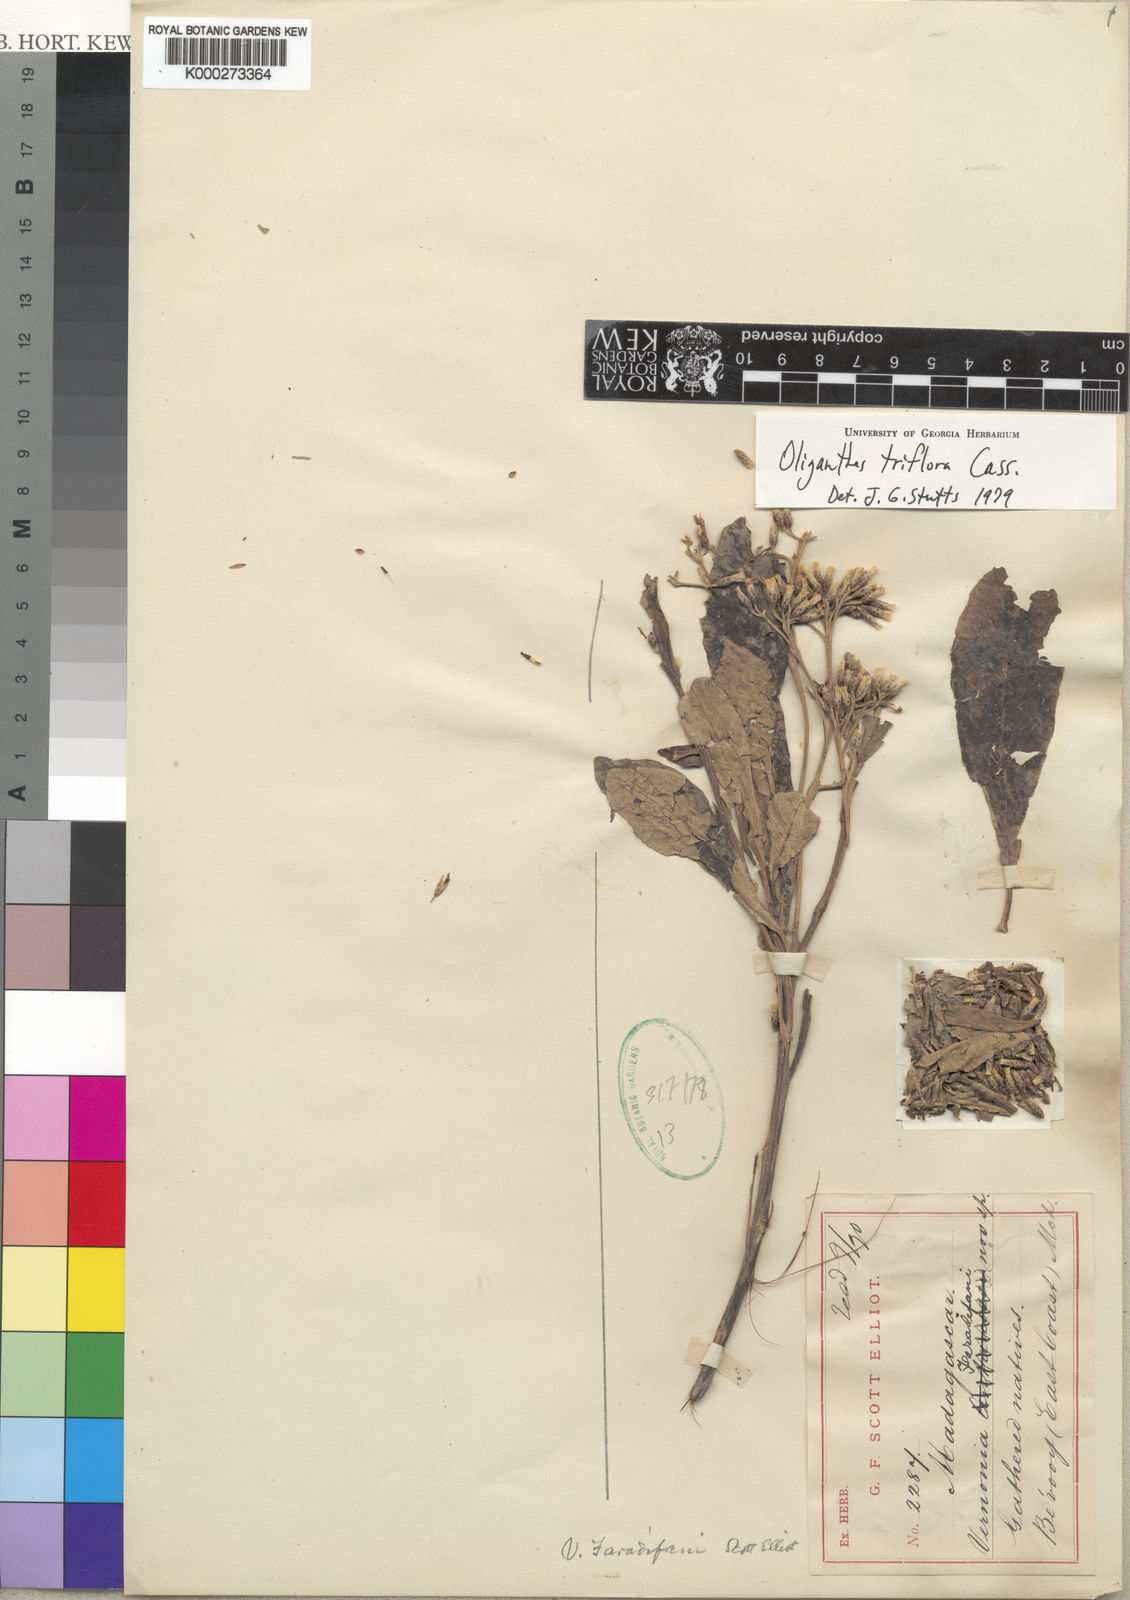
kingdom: Plantae
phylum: Tracheophyta
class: Magnoliopsida
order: Asterales
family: Asteraceae
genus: Piptocoma
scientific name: Piptocoma vernonioides
